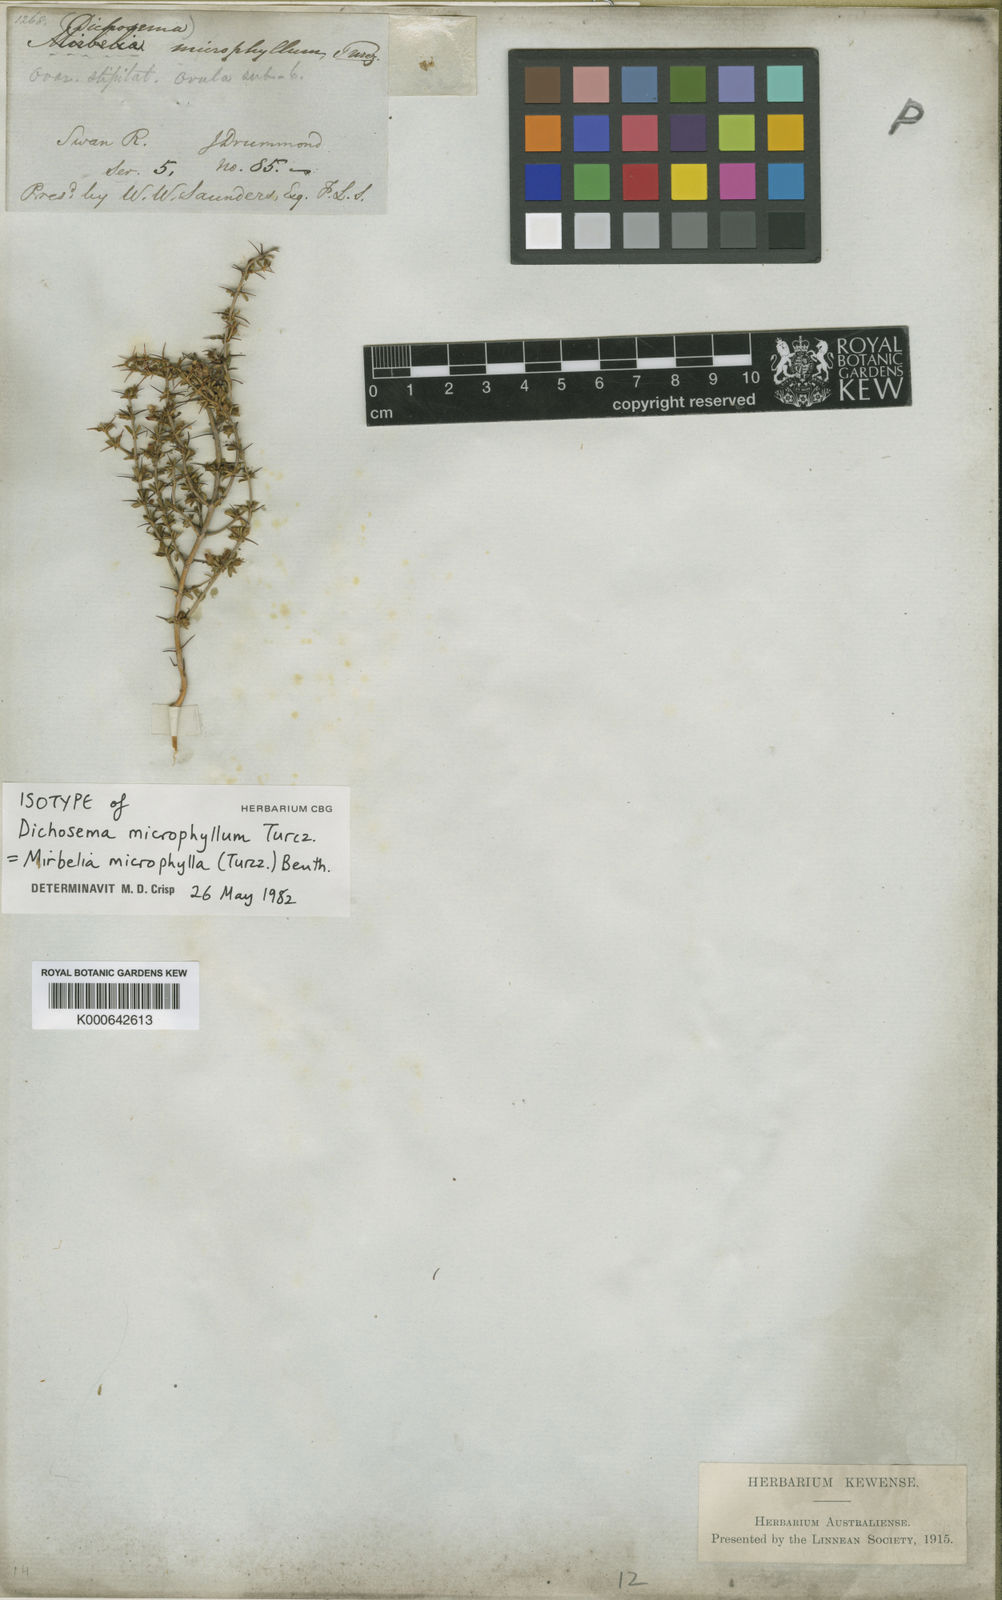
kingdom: Plantae
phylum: Tracheophyta
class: Magnoliopsida
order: Fabales
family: Fabaceae
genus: Mirbelia
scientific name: Mirbelia microphylla
